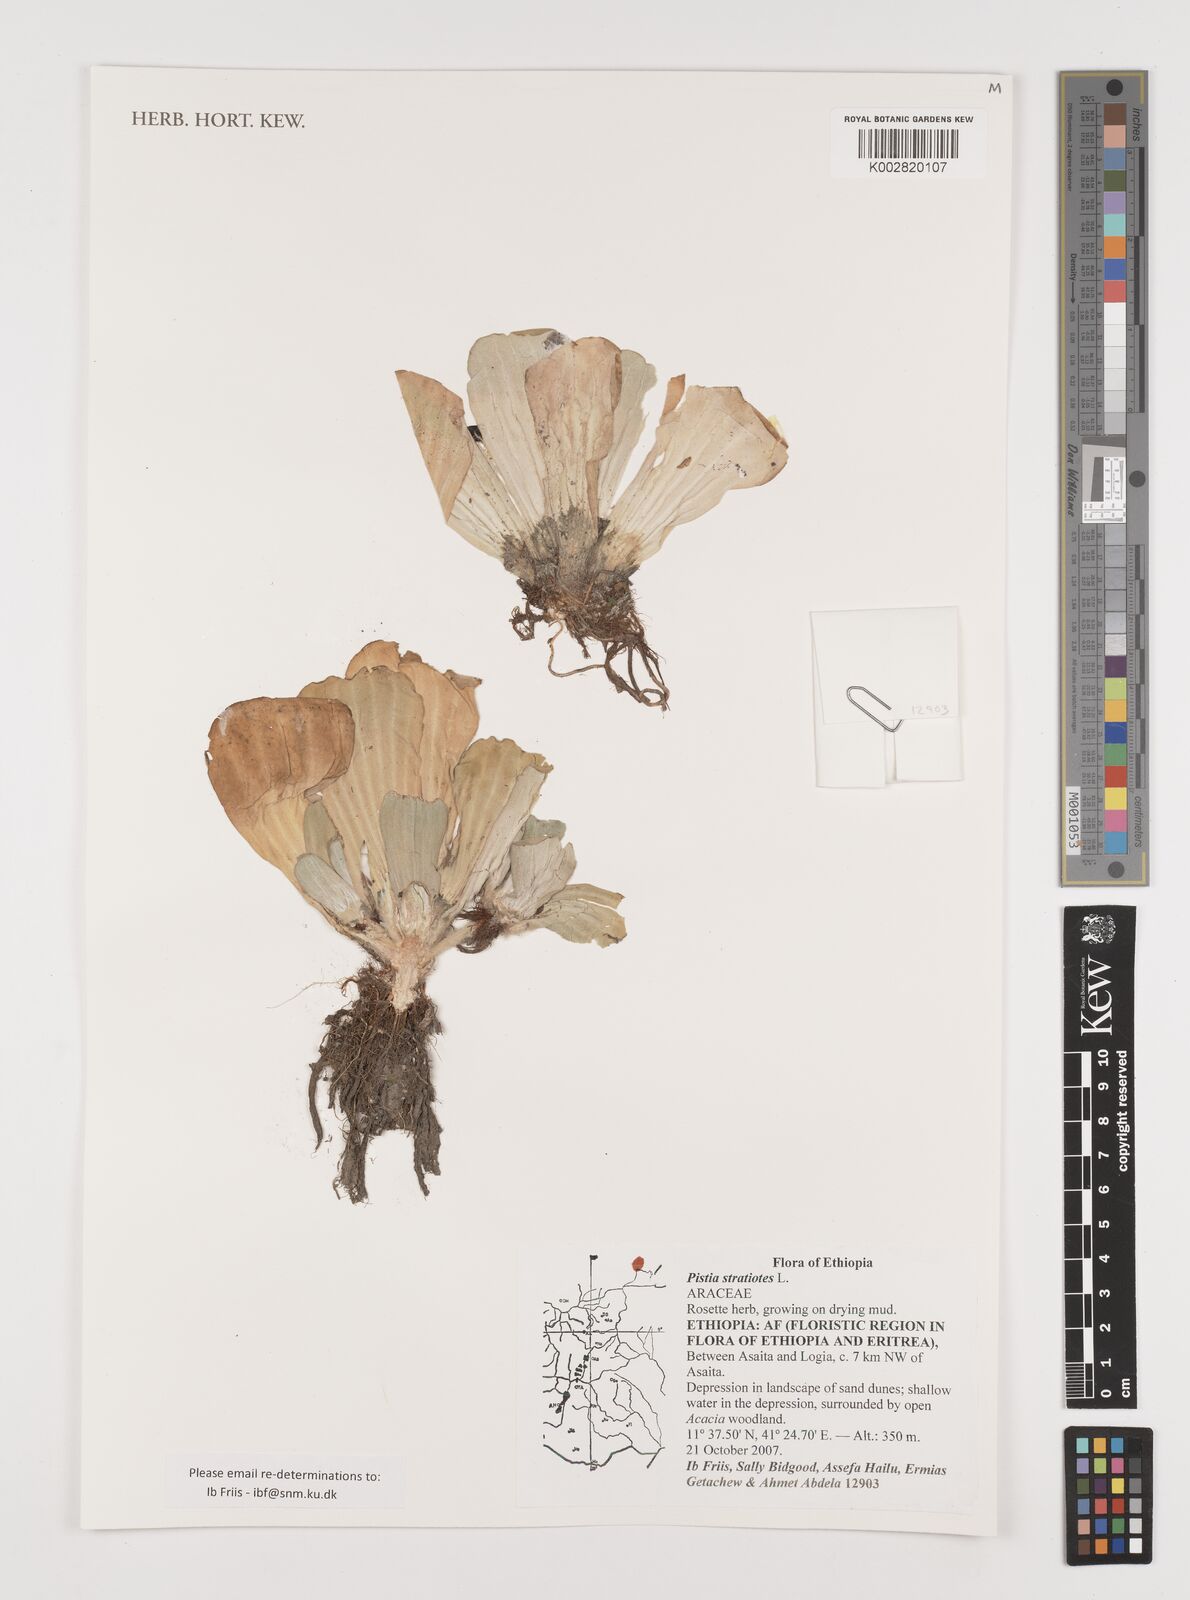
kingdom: Plantae
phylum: Tracheophyta
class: Liliopsida
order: Alismatales
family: Araceae
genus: Pistia
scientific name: Pistia stratiotes
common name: Water lettuce
